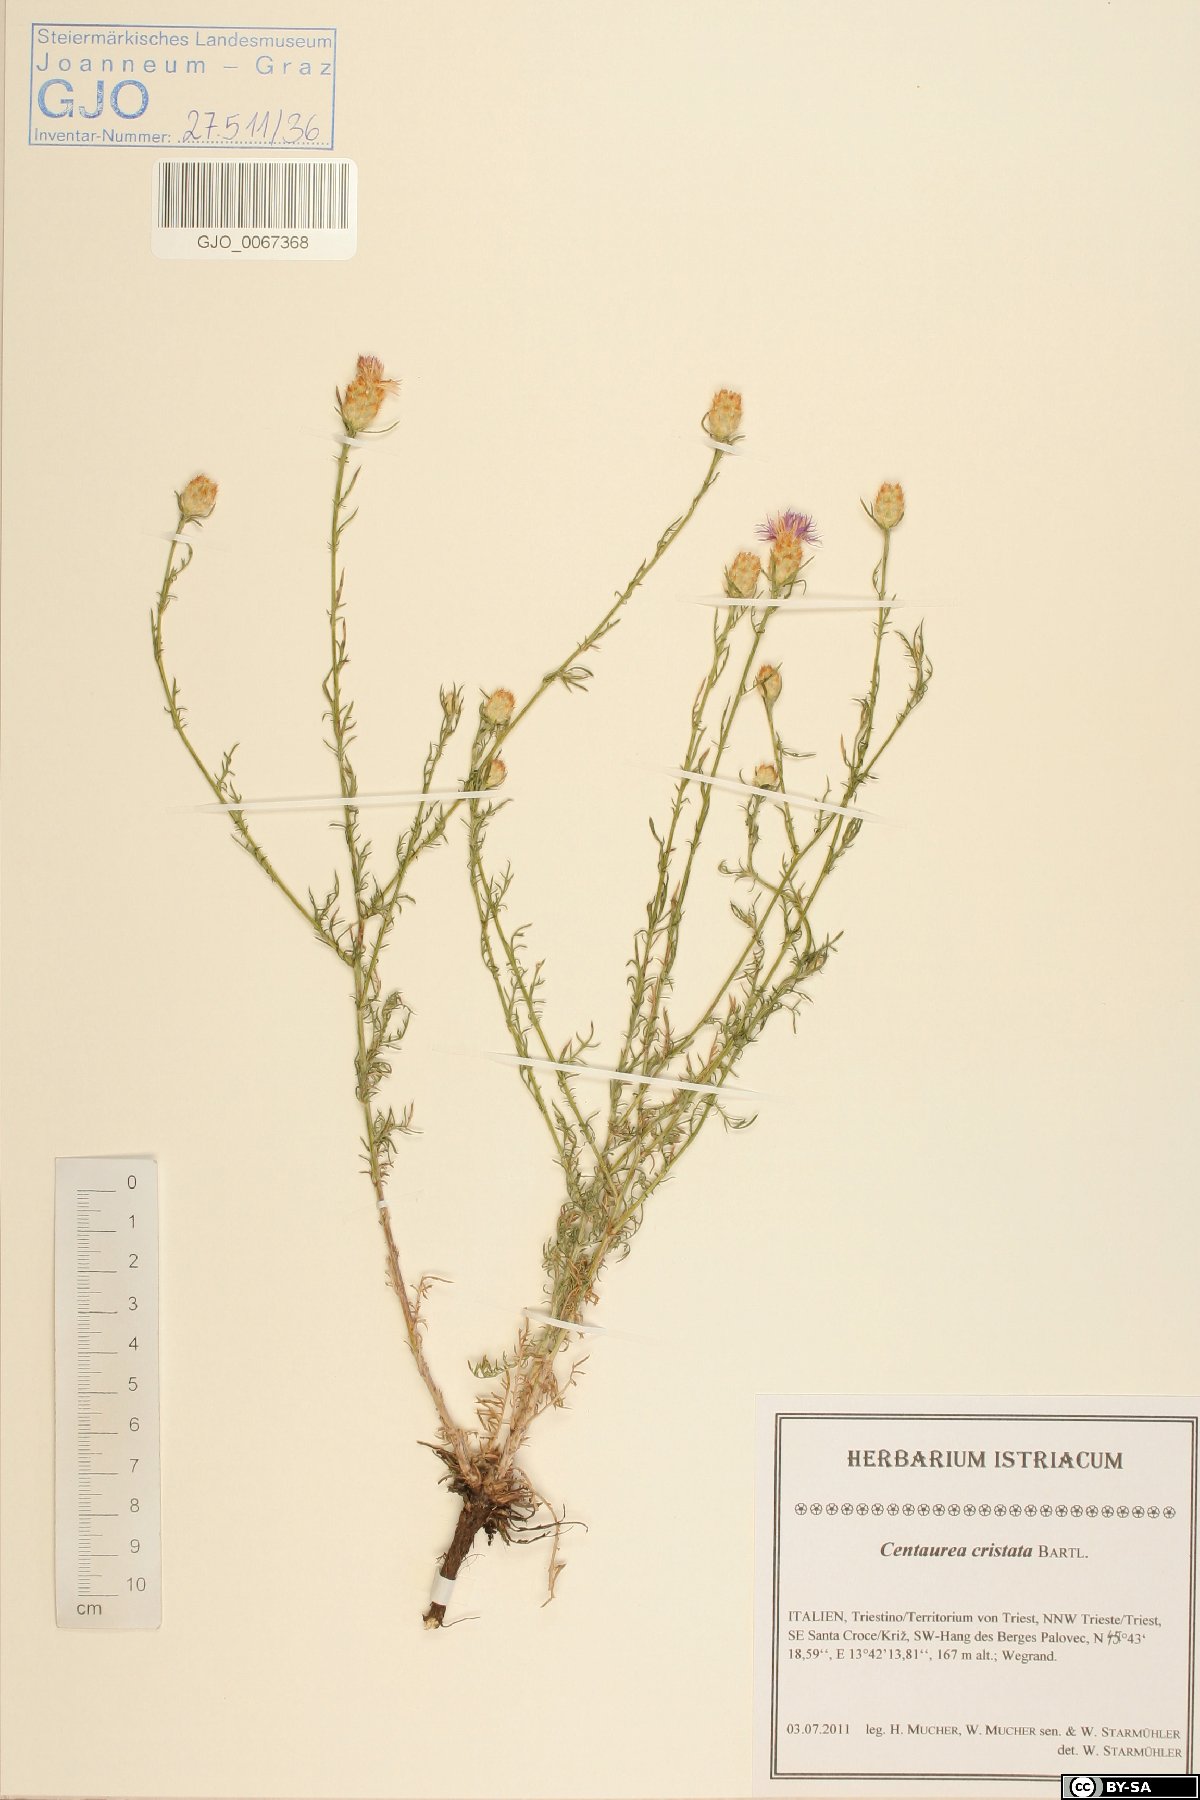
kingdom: Plantae
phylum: Tracheophyta
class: Magnoliopsida
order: Asterales
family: Asteraceae
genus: Centaurea
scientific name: Centaurea cristata
